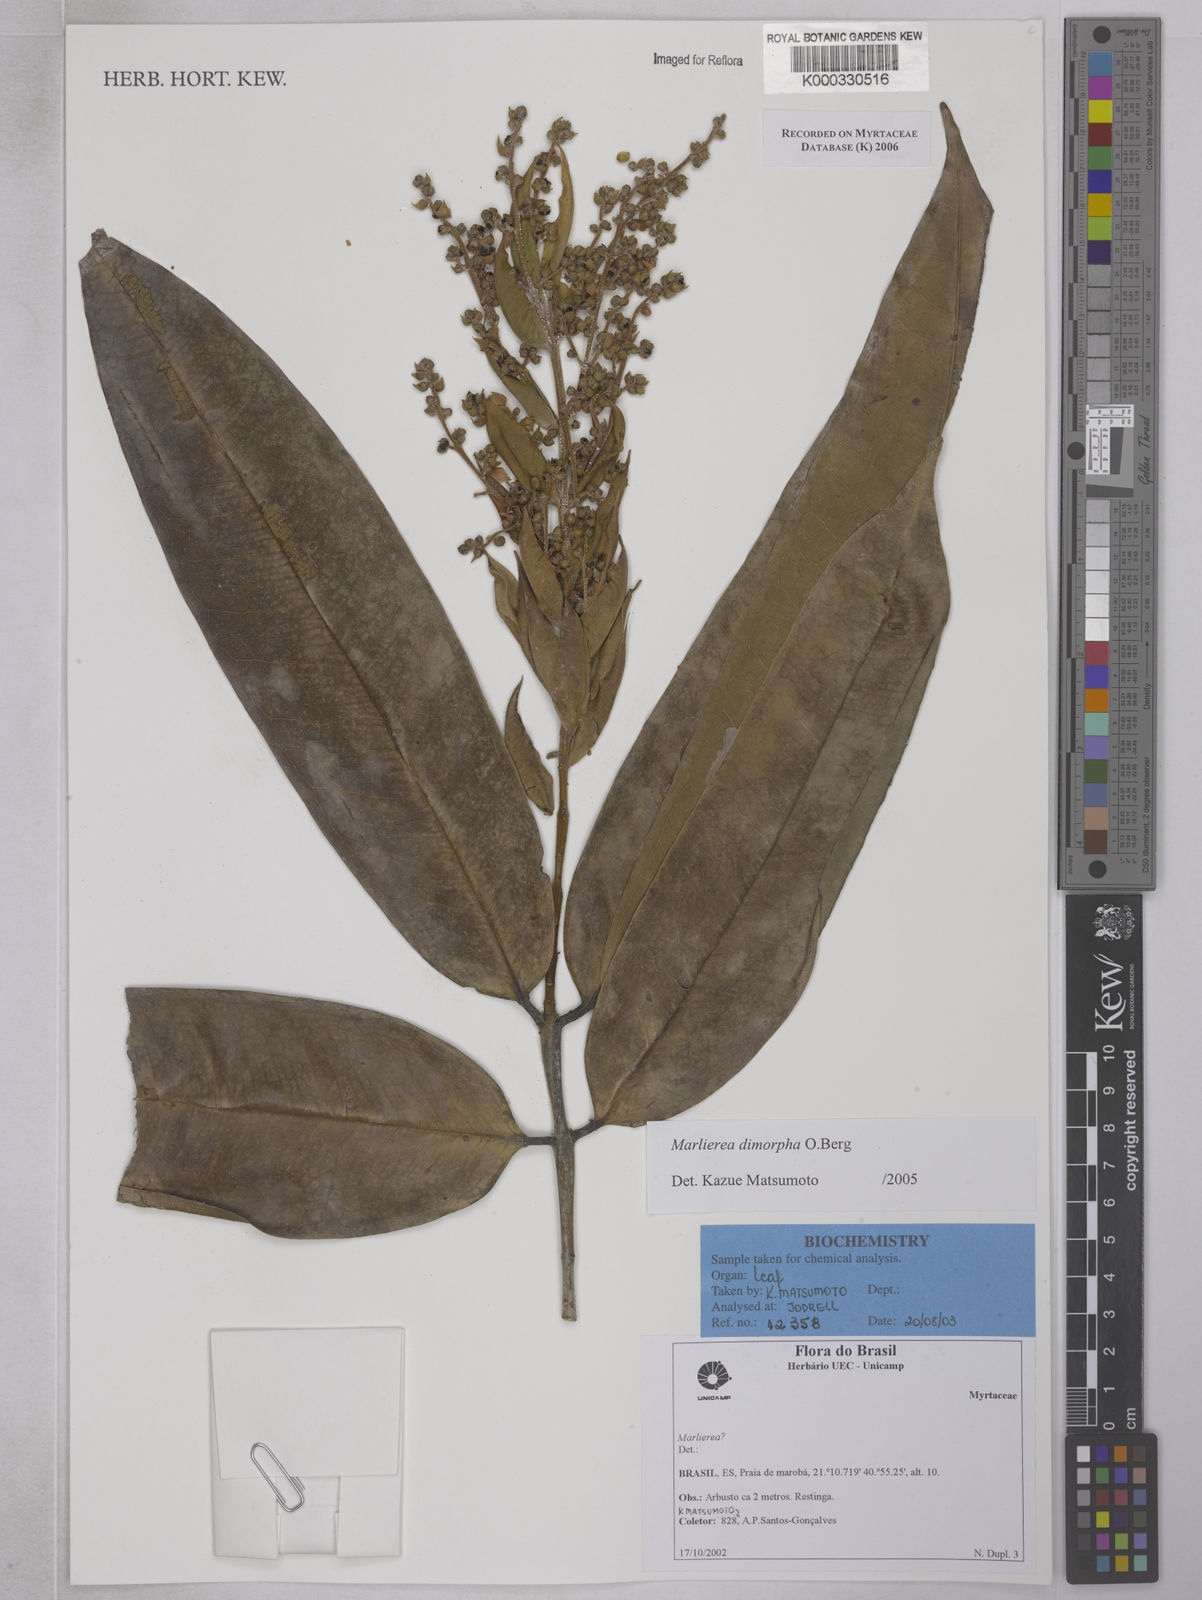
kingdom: Plantae
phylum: Tracheophyta
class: Magnoliopsida
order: Myrtales
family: Myrtaceae
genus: Myrcia
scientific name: Myrcia neodimorpha
